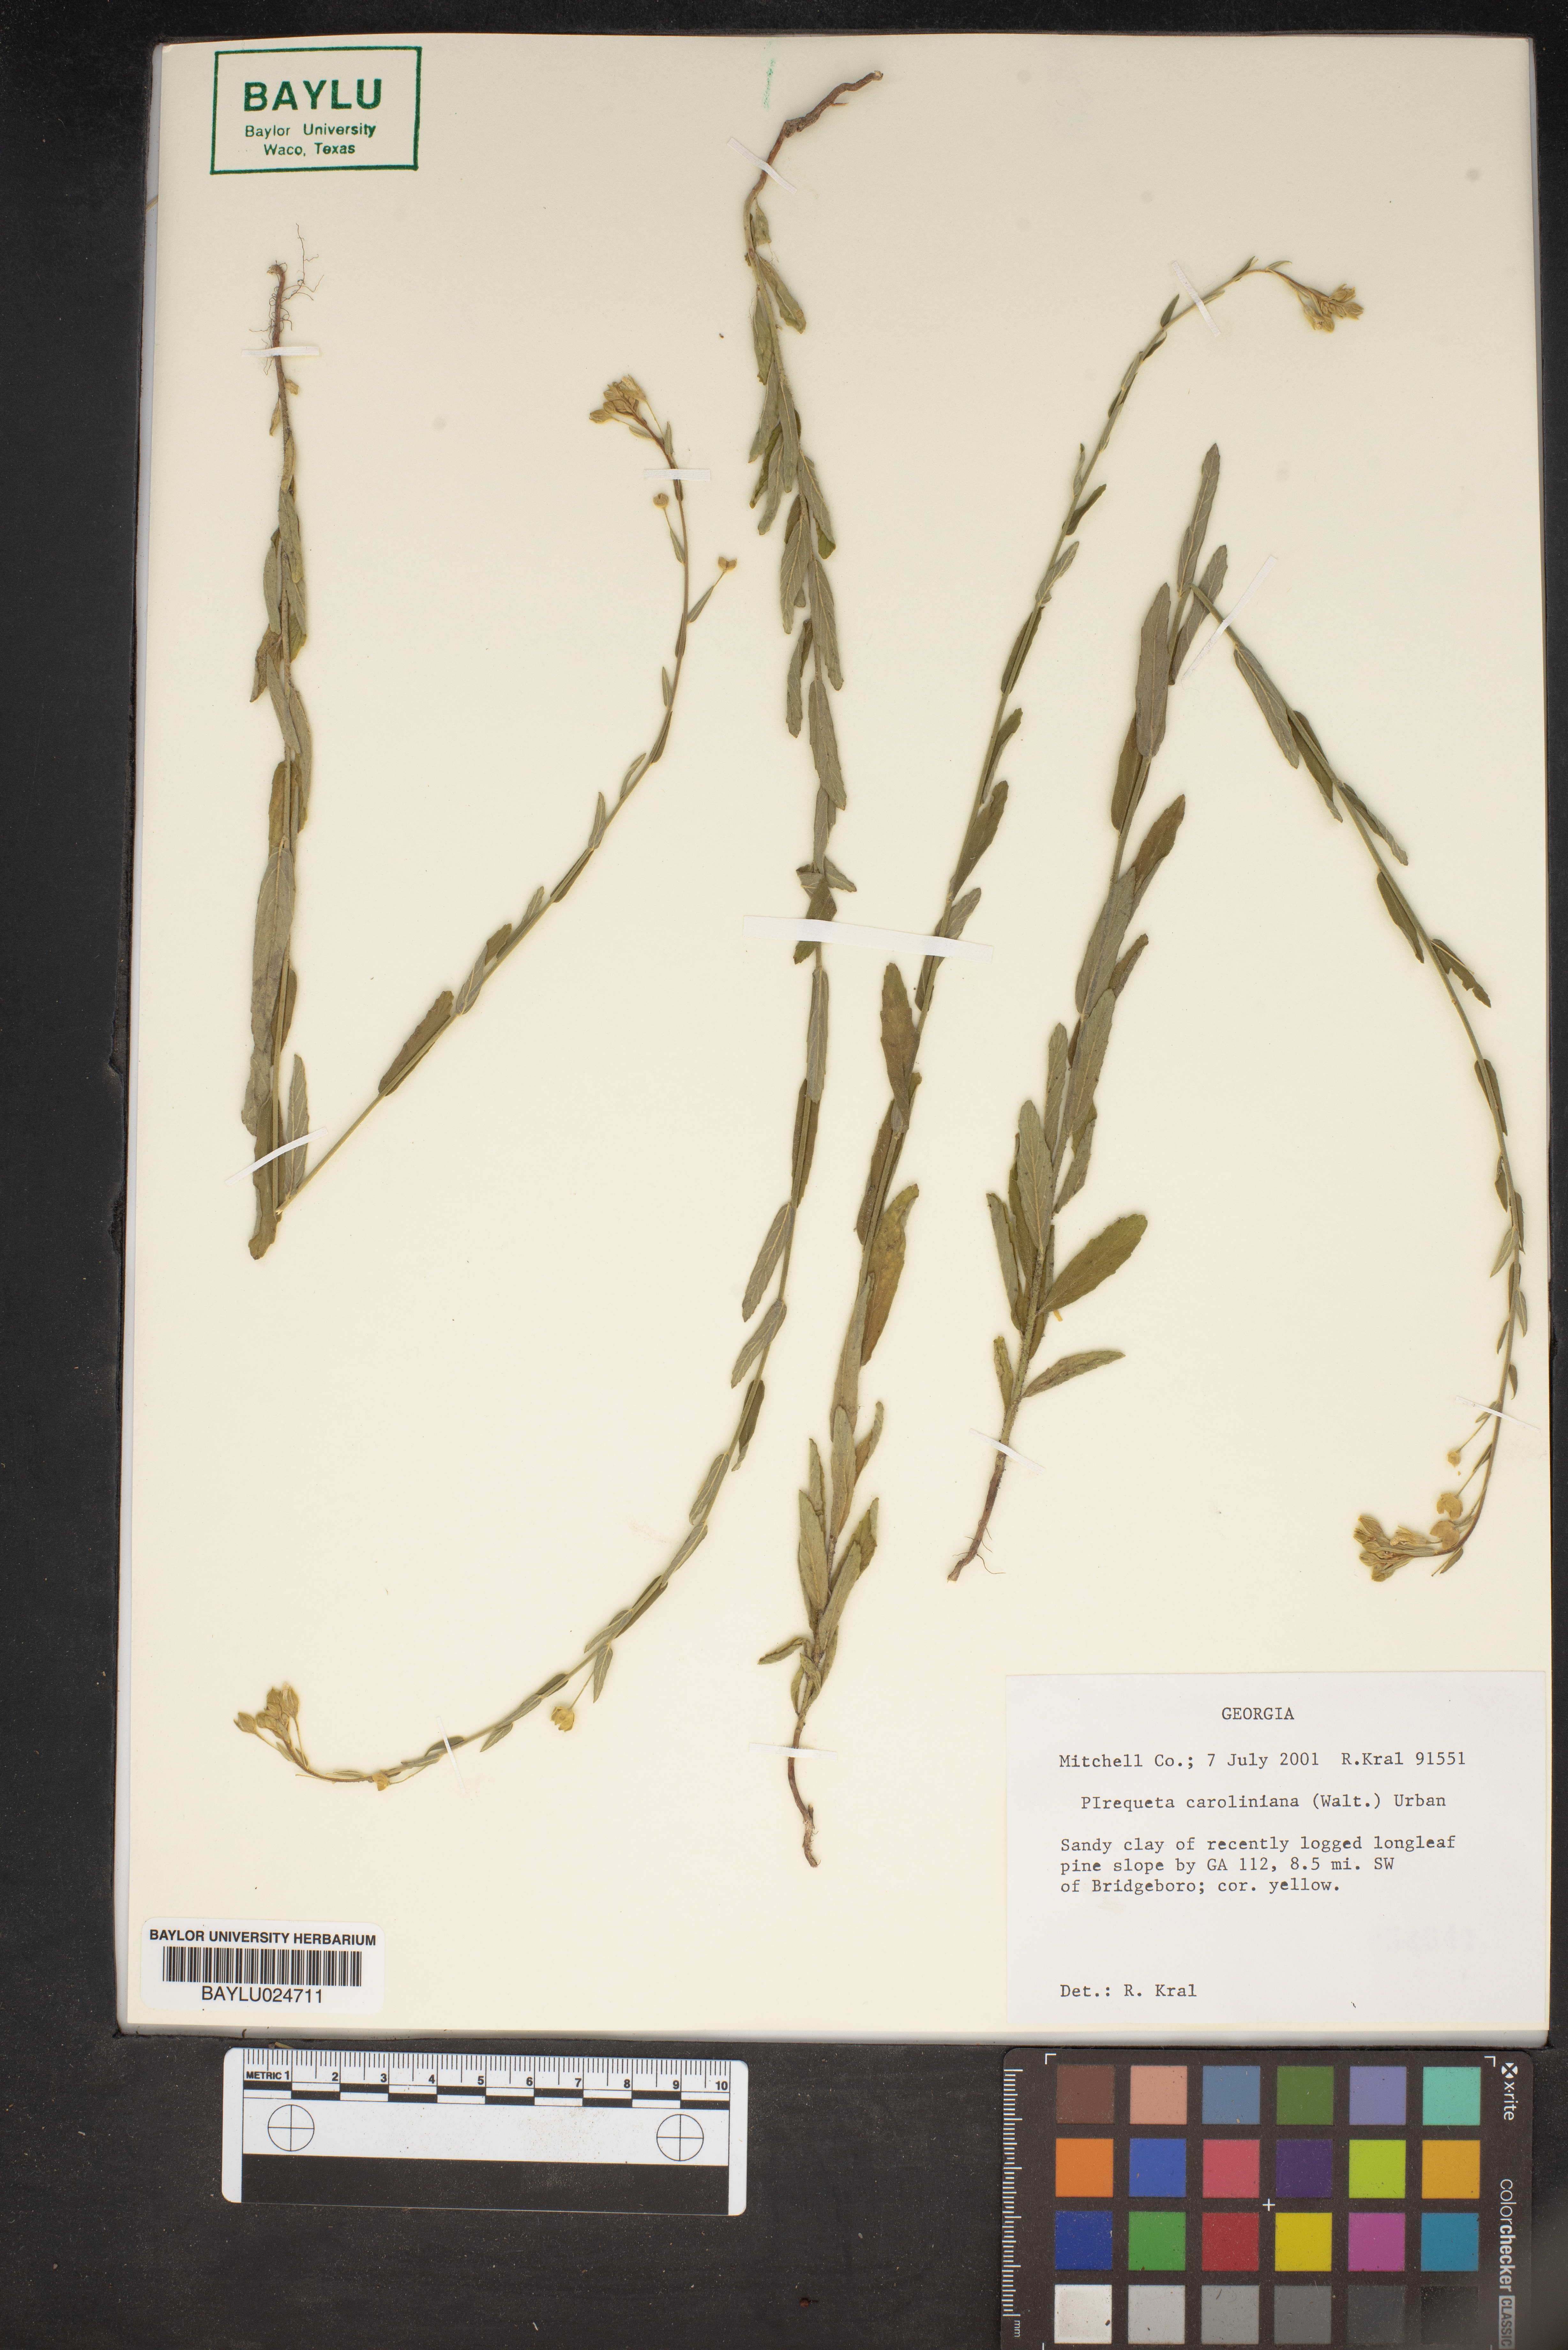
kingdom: Plantae
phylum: Tracheophyta
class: Magnoliopsida
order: Malpighiales
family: Turneraceae
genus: Piriqueta
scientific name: Piriqueta cistoides
